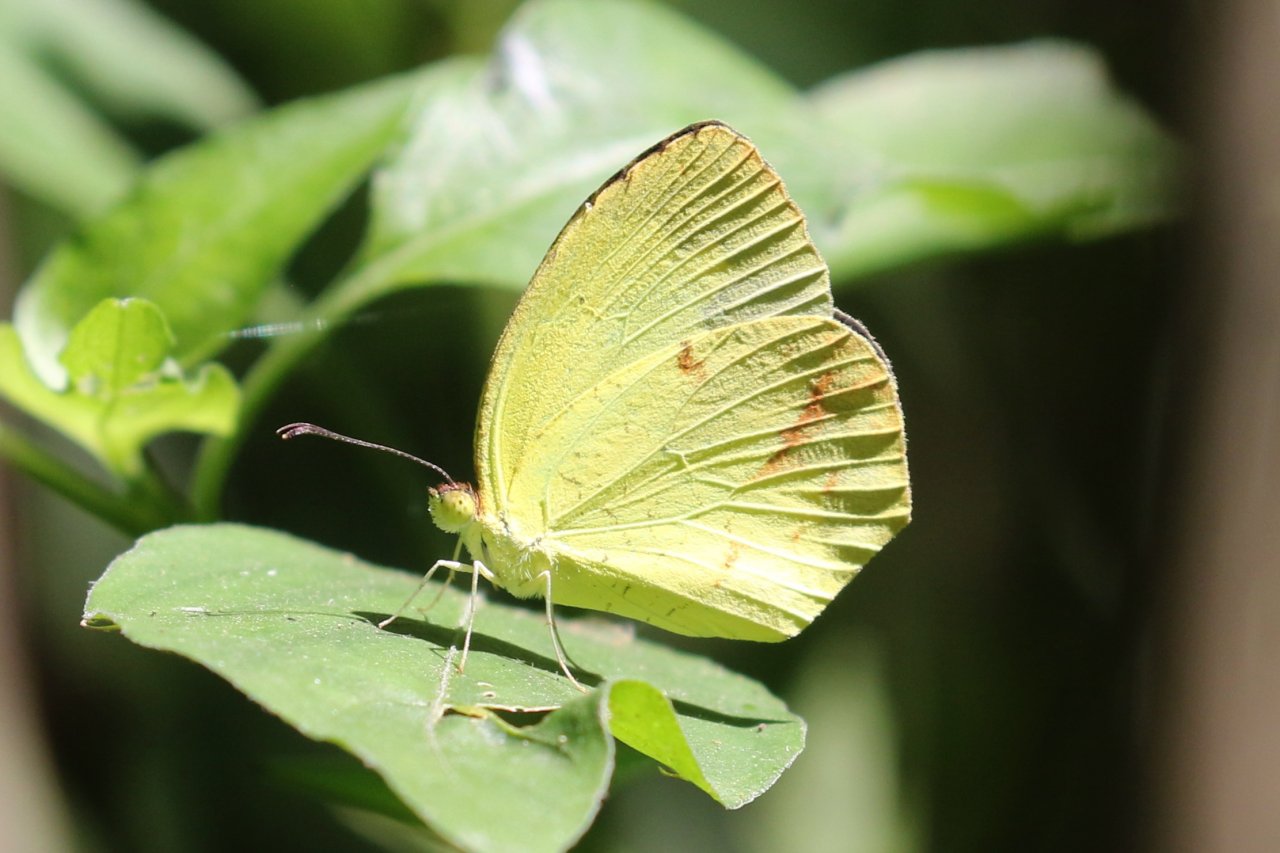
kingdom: Animalia
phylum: Arthropoda
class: Insecta
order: Lepidoptera
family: Pieridae
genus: Eurema
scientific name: Eurema boisduvaliana
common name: Boisduval's Yellow
